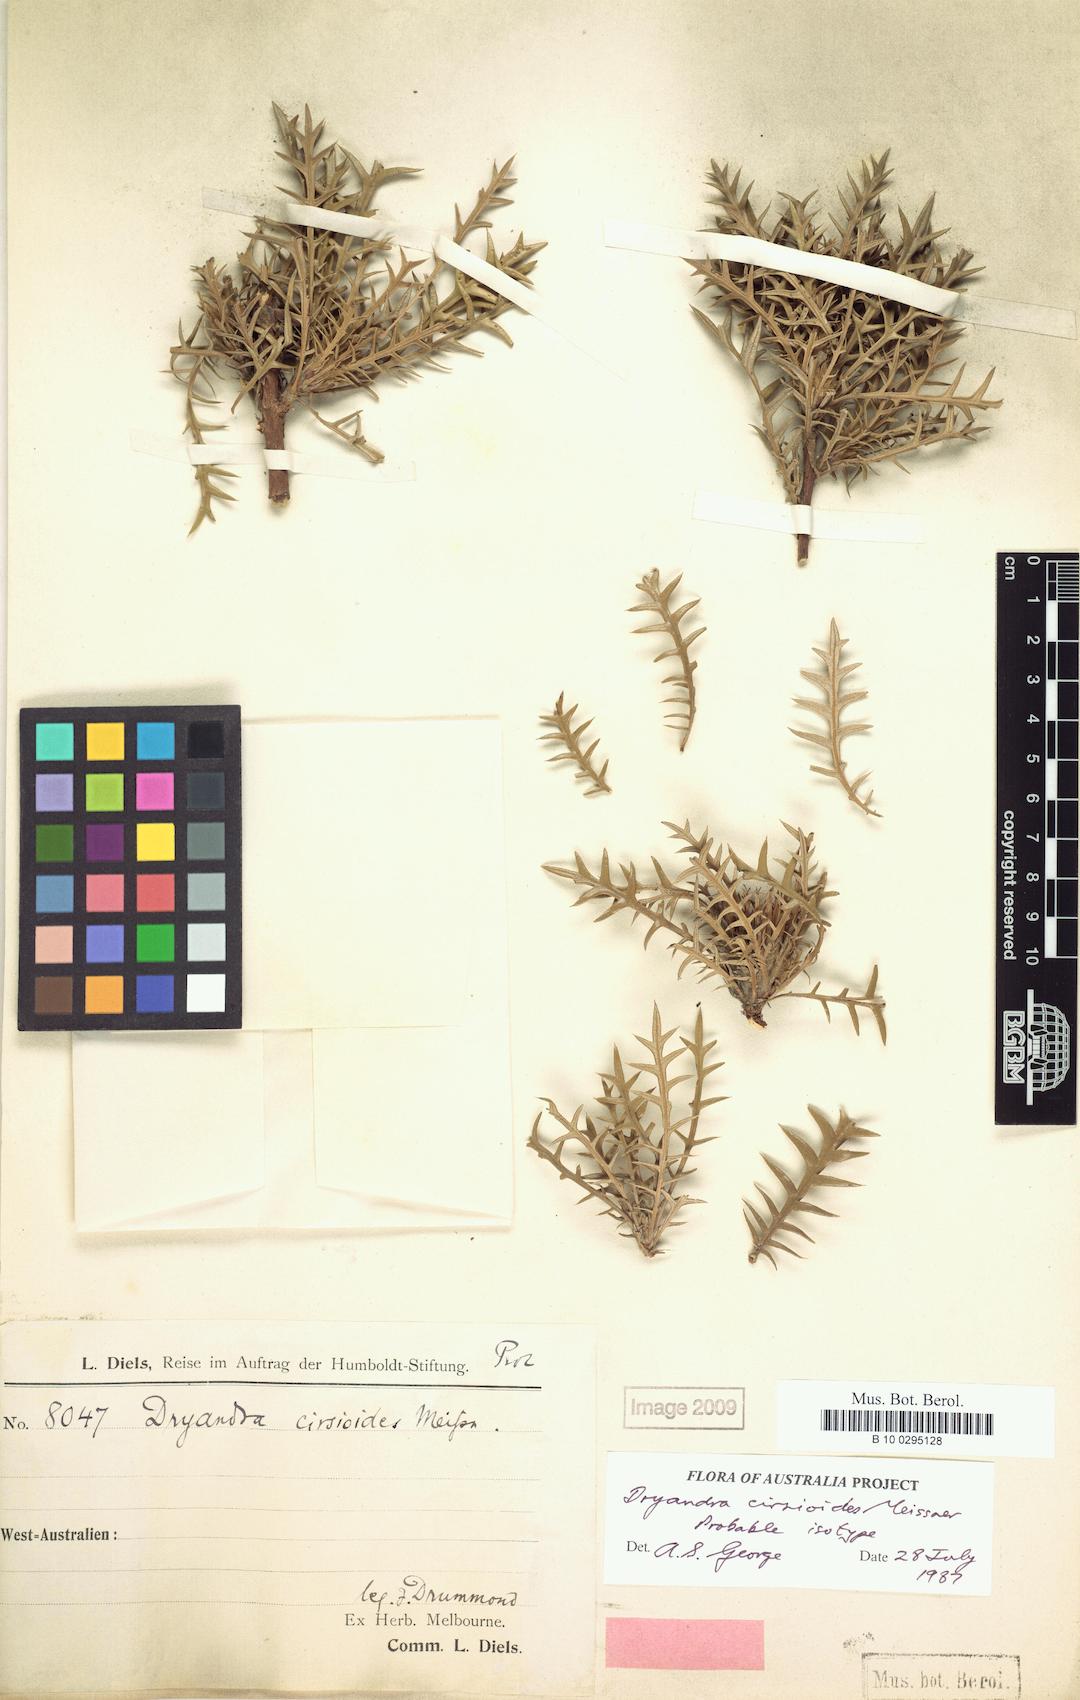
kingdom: Plantae
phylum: Tracheophyta
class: Magnoliopsida
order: Proteales
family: Proteaceae
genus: Banksia
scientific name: Banksia cirsioides
